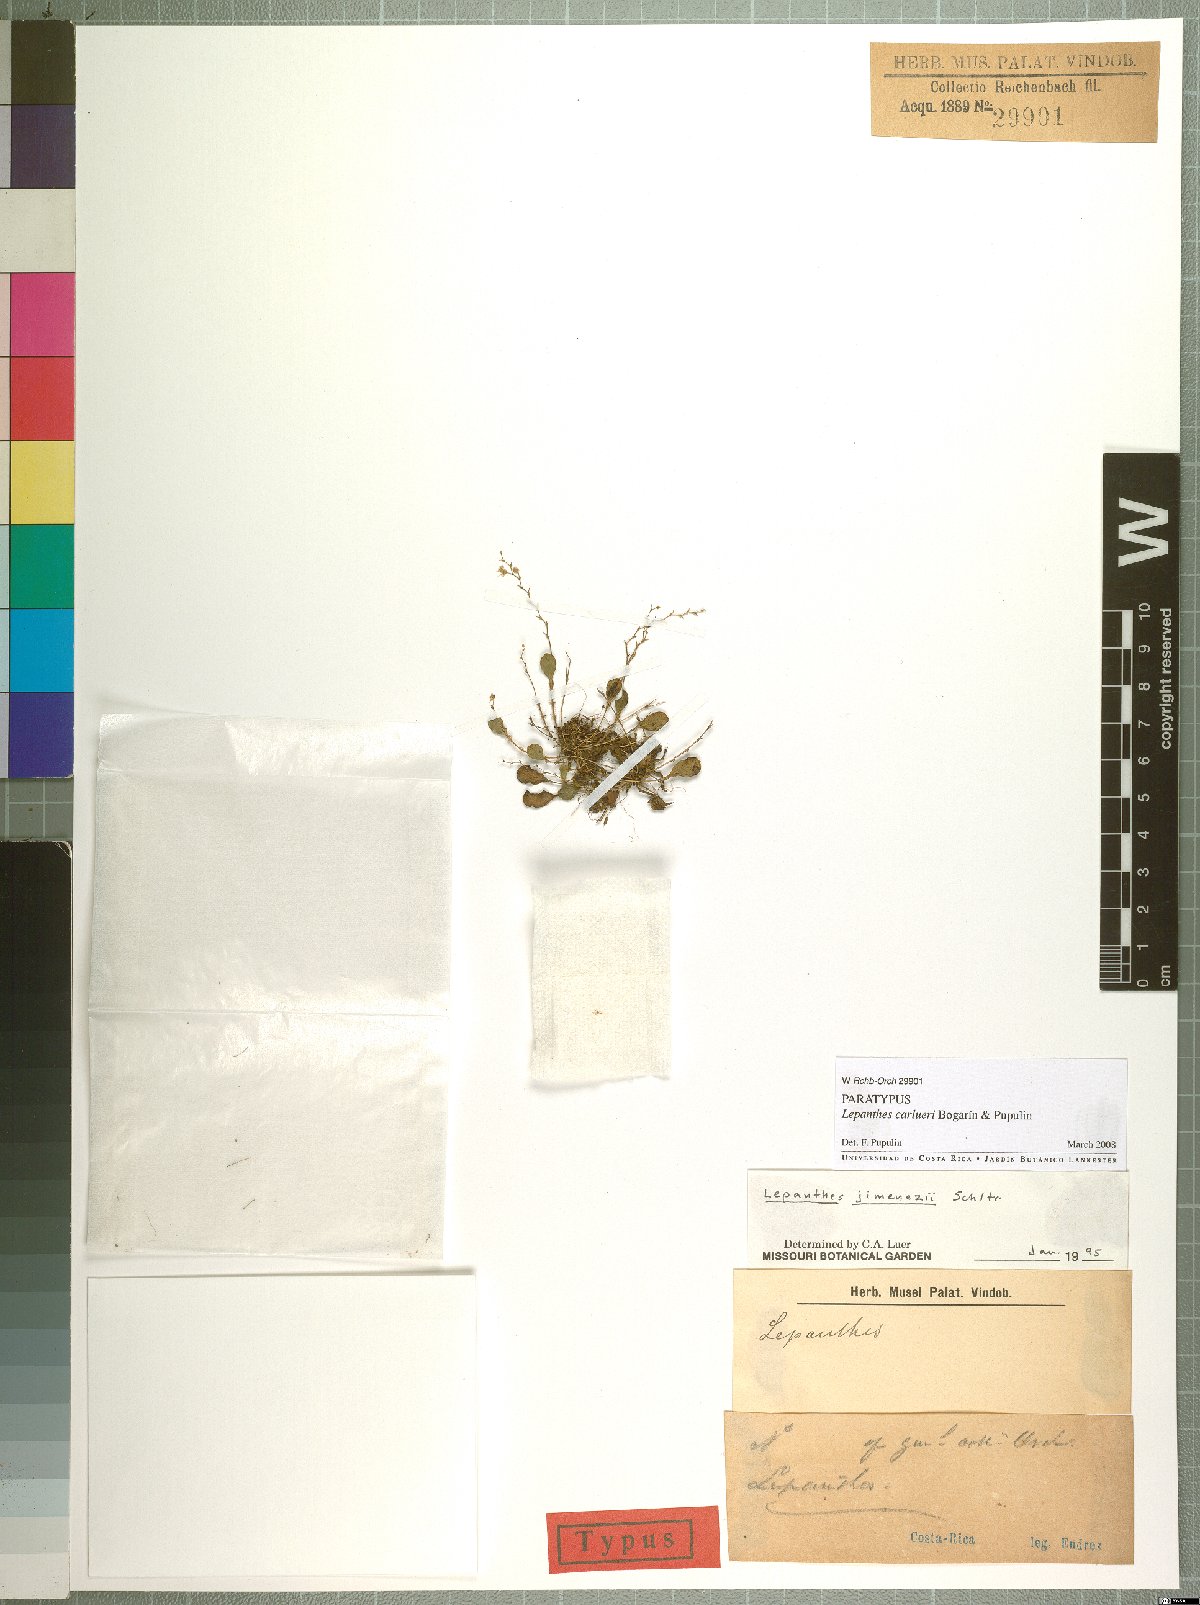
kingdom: Plantae
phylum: Tracheophyta
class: Liliopsida
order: Asparagales
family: Orchidaceae
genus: Lepanthes
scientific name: Lepanthes caroli-lueri
